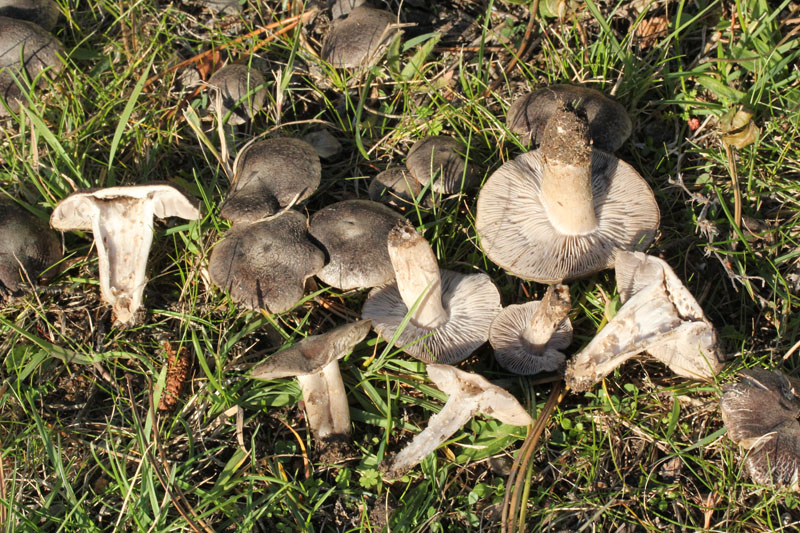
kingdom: Fungi
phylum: Basidiomycota
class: Agaricomycetes
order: Agaricales
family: Tricholomataceae
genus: Tricholoma
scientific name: Tricholoma terreum
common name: jordfarvet ridderhat
